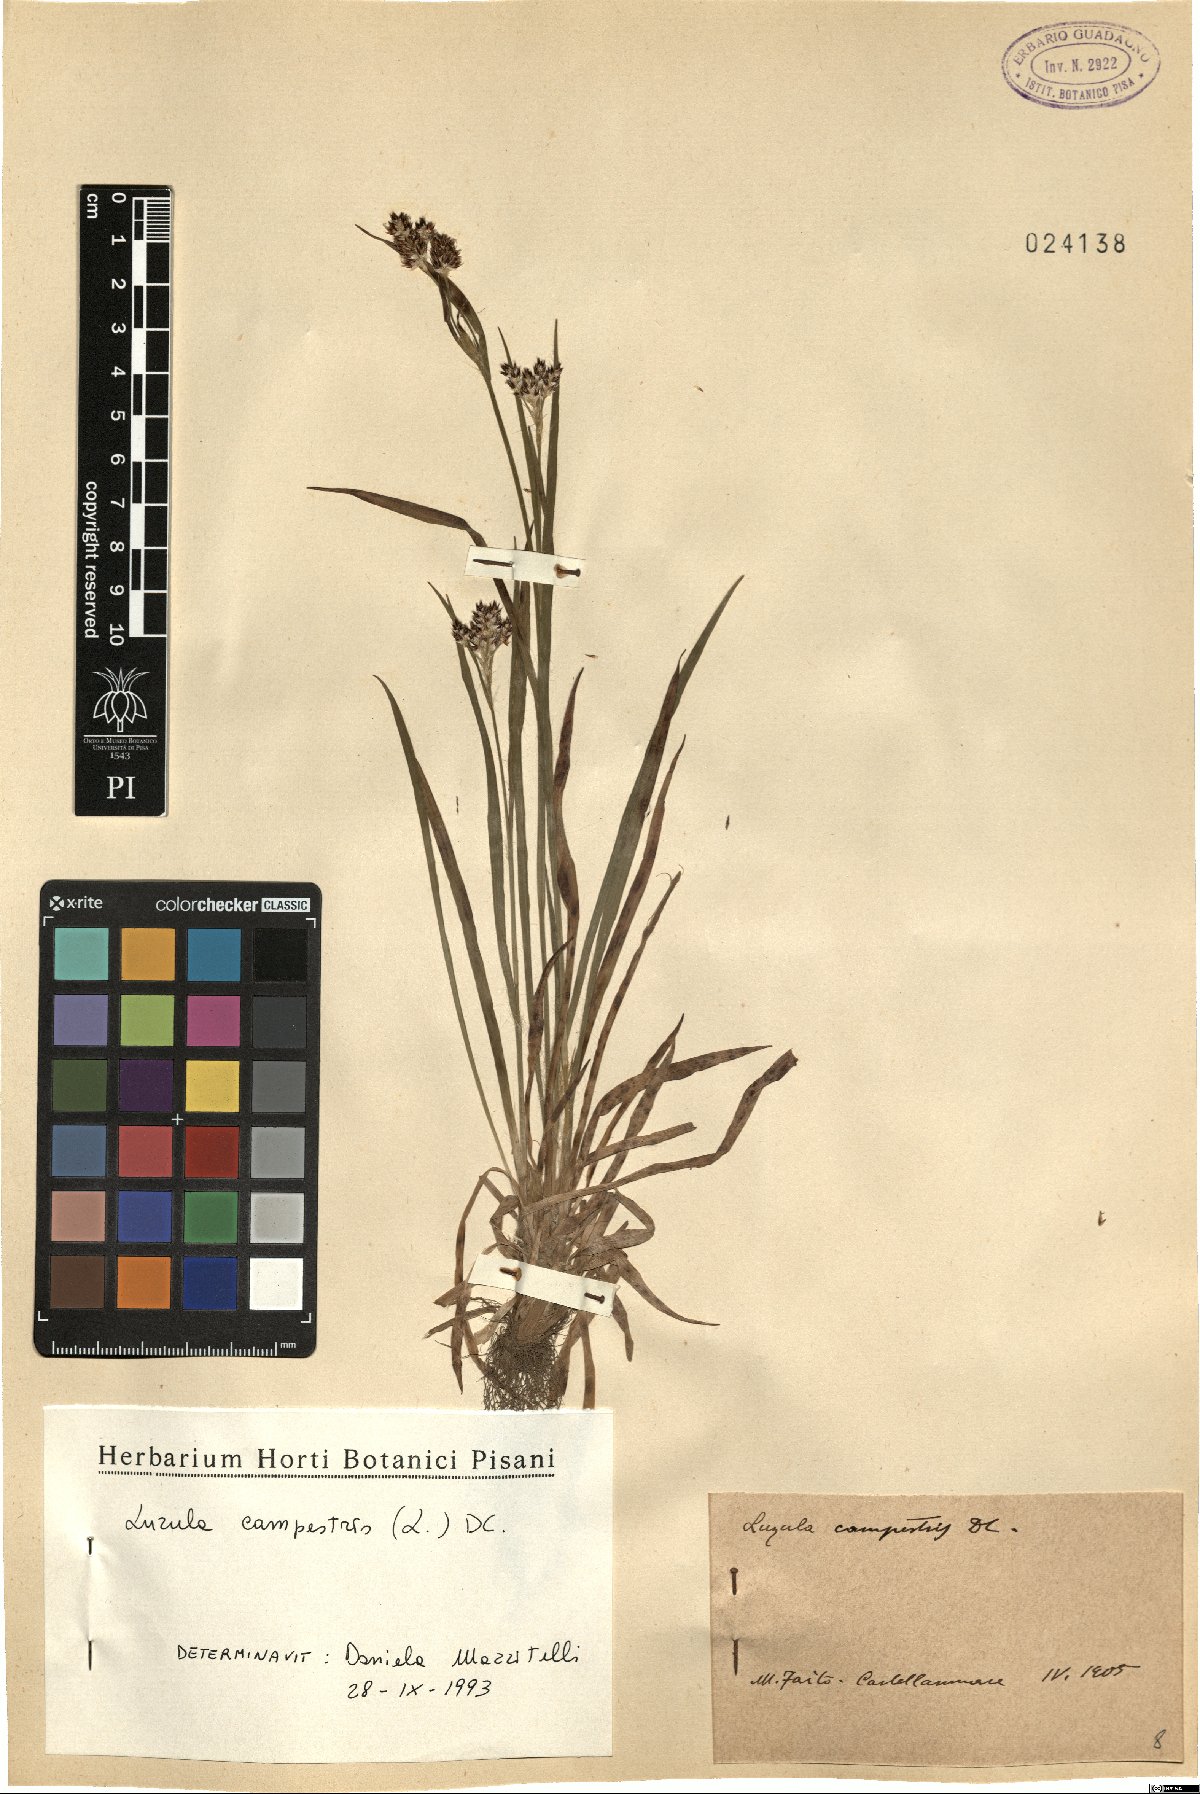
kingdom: Plantae
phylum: Tracheophyta
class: Liliopsida
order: Poales
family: Juncaceae
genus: Luzula
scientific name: Luzula campestris
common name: Field wood-rush
